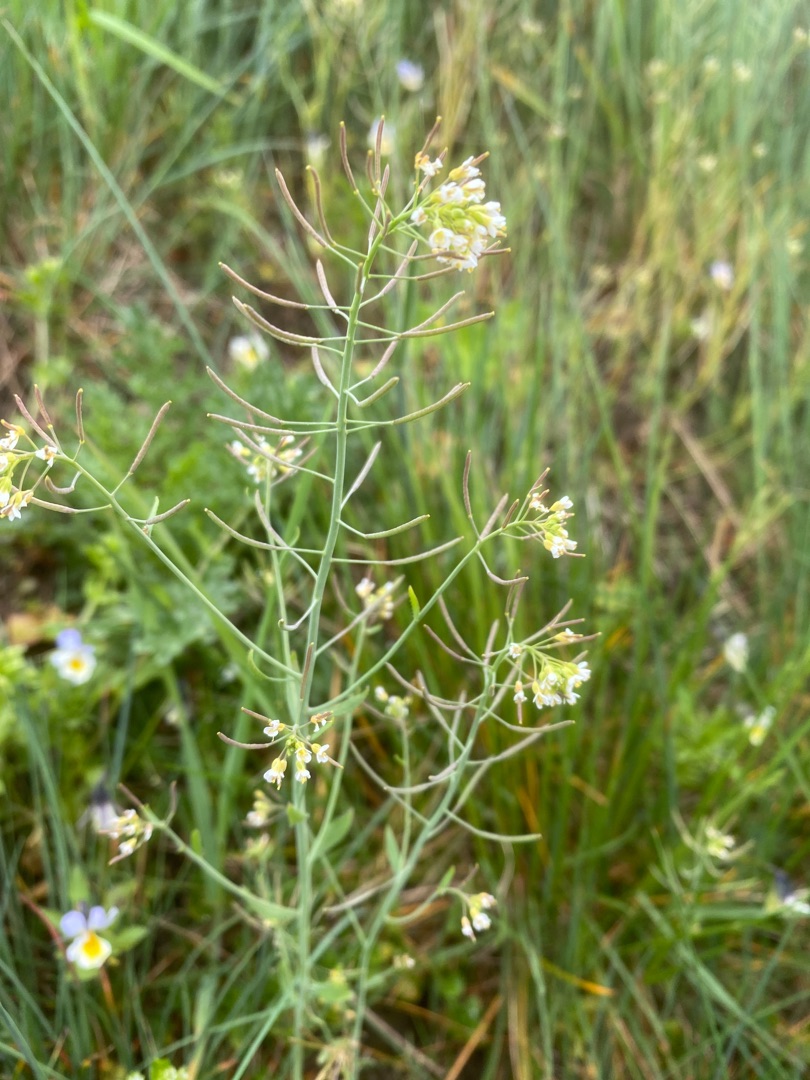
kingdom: Plantae
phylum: Tracheophyta
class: Magnoliopsida
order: Brassicales
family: Brassicaceae
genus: Arabidopsis
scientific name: Arabidopsis thaliana
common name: Almindelig gåsemad
